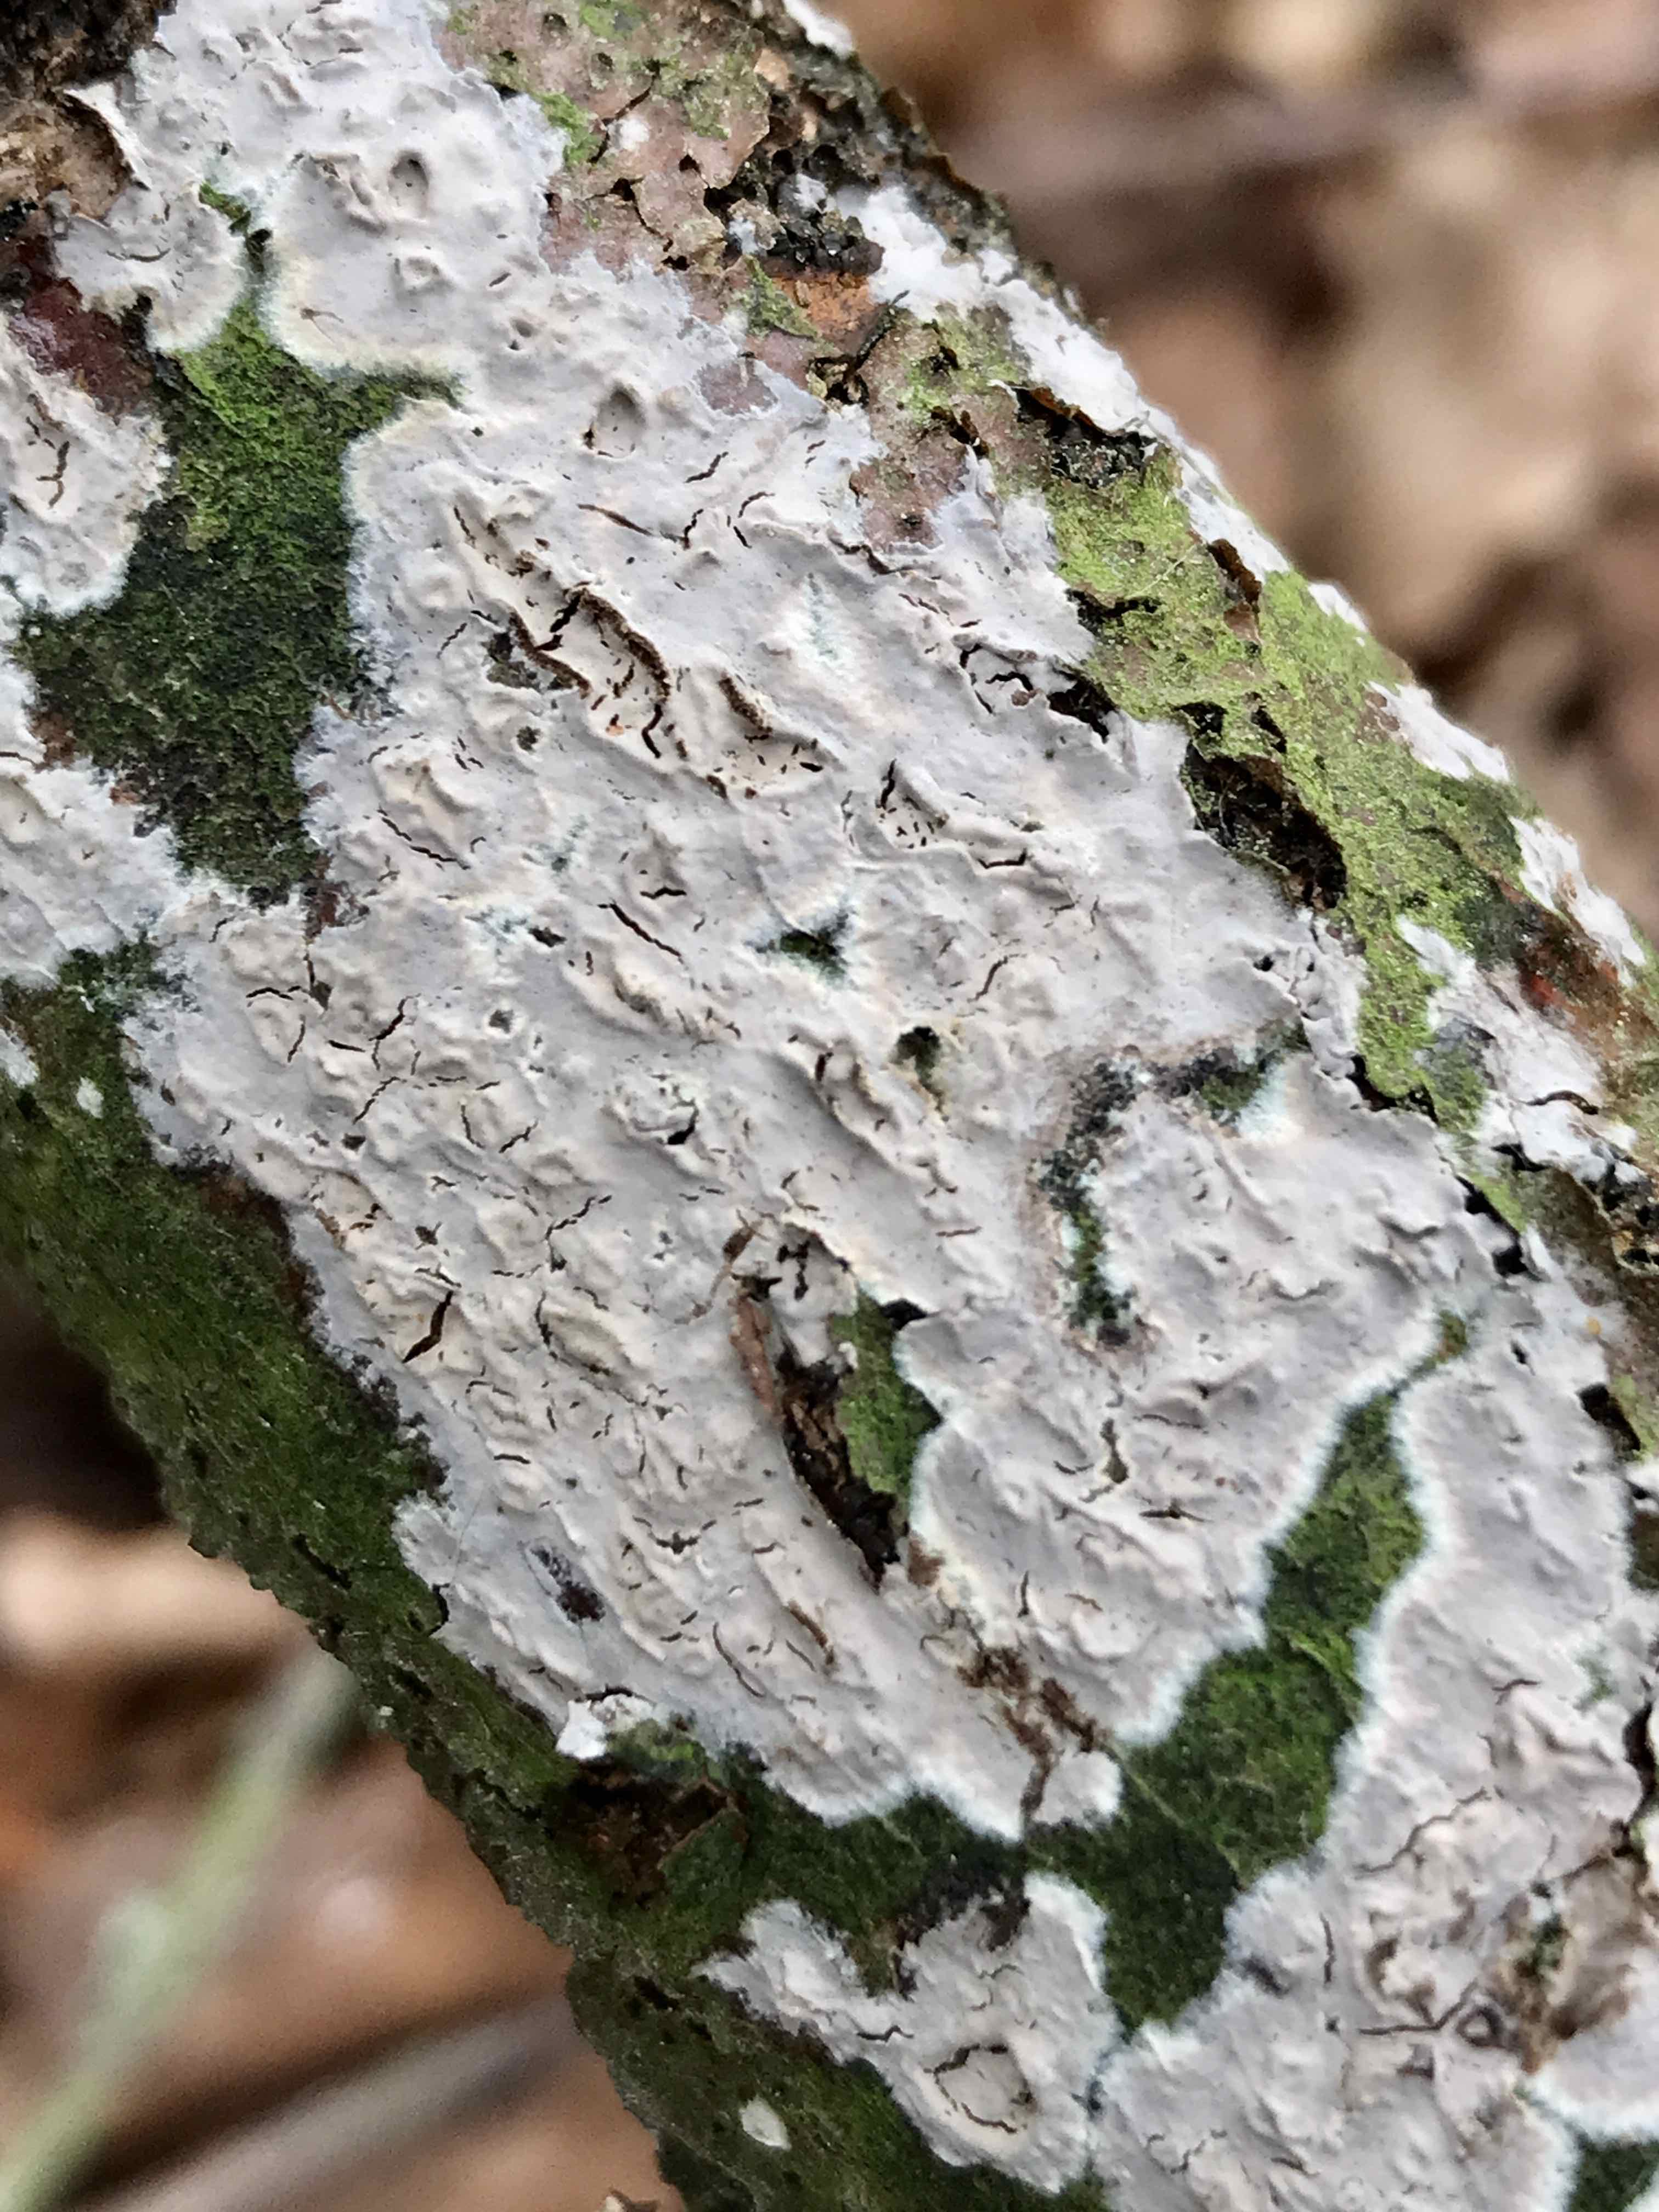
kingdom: Fungi
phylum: Basidiomycota
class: Agaricomycetes
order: Agaricales
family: Physalacriaceae
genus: Cylindrobasidium
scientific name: Cylindrobasidium evolvens
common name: sprækkehinde
